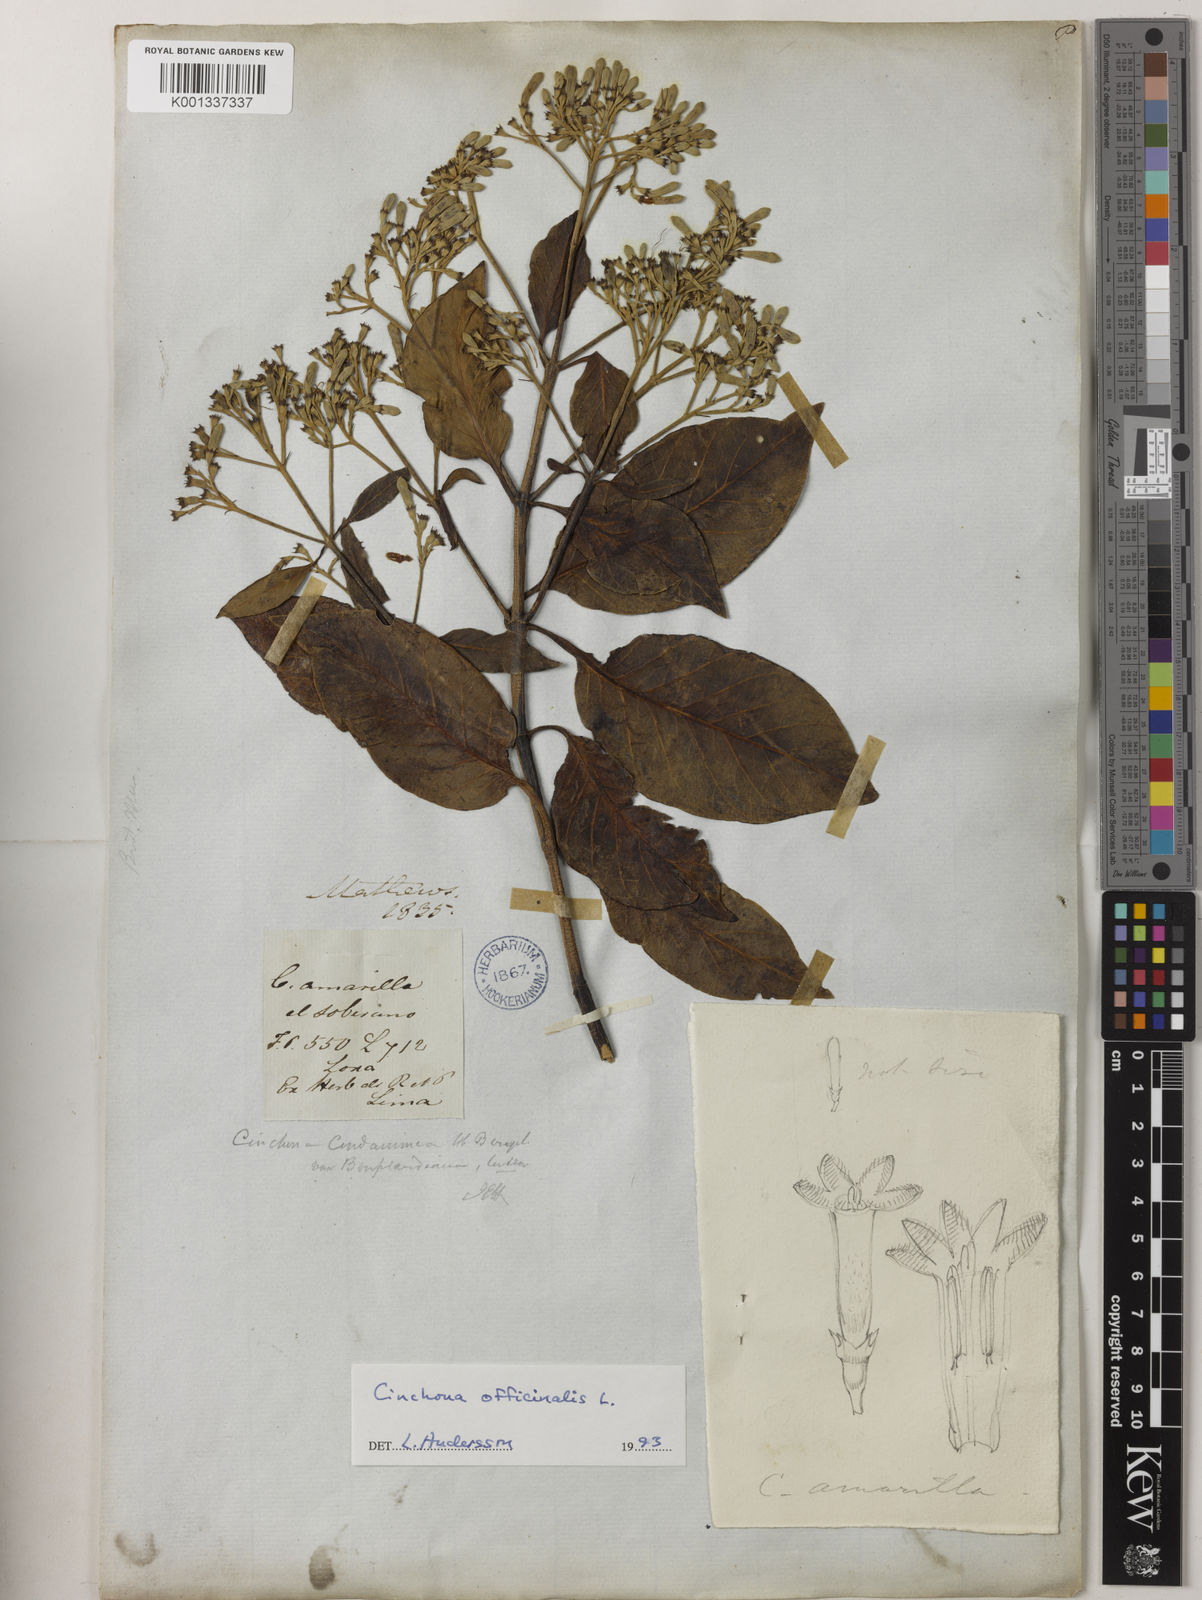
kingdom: Plantae
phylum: Tracheophyta
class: Magnoliopsida
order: Gentianales
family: Rubiaceae
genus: Cinchona
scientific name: Cinchona officinalis
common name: Lojabark
